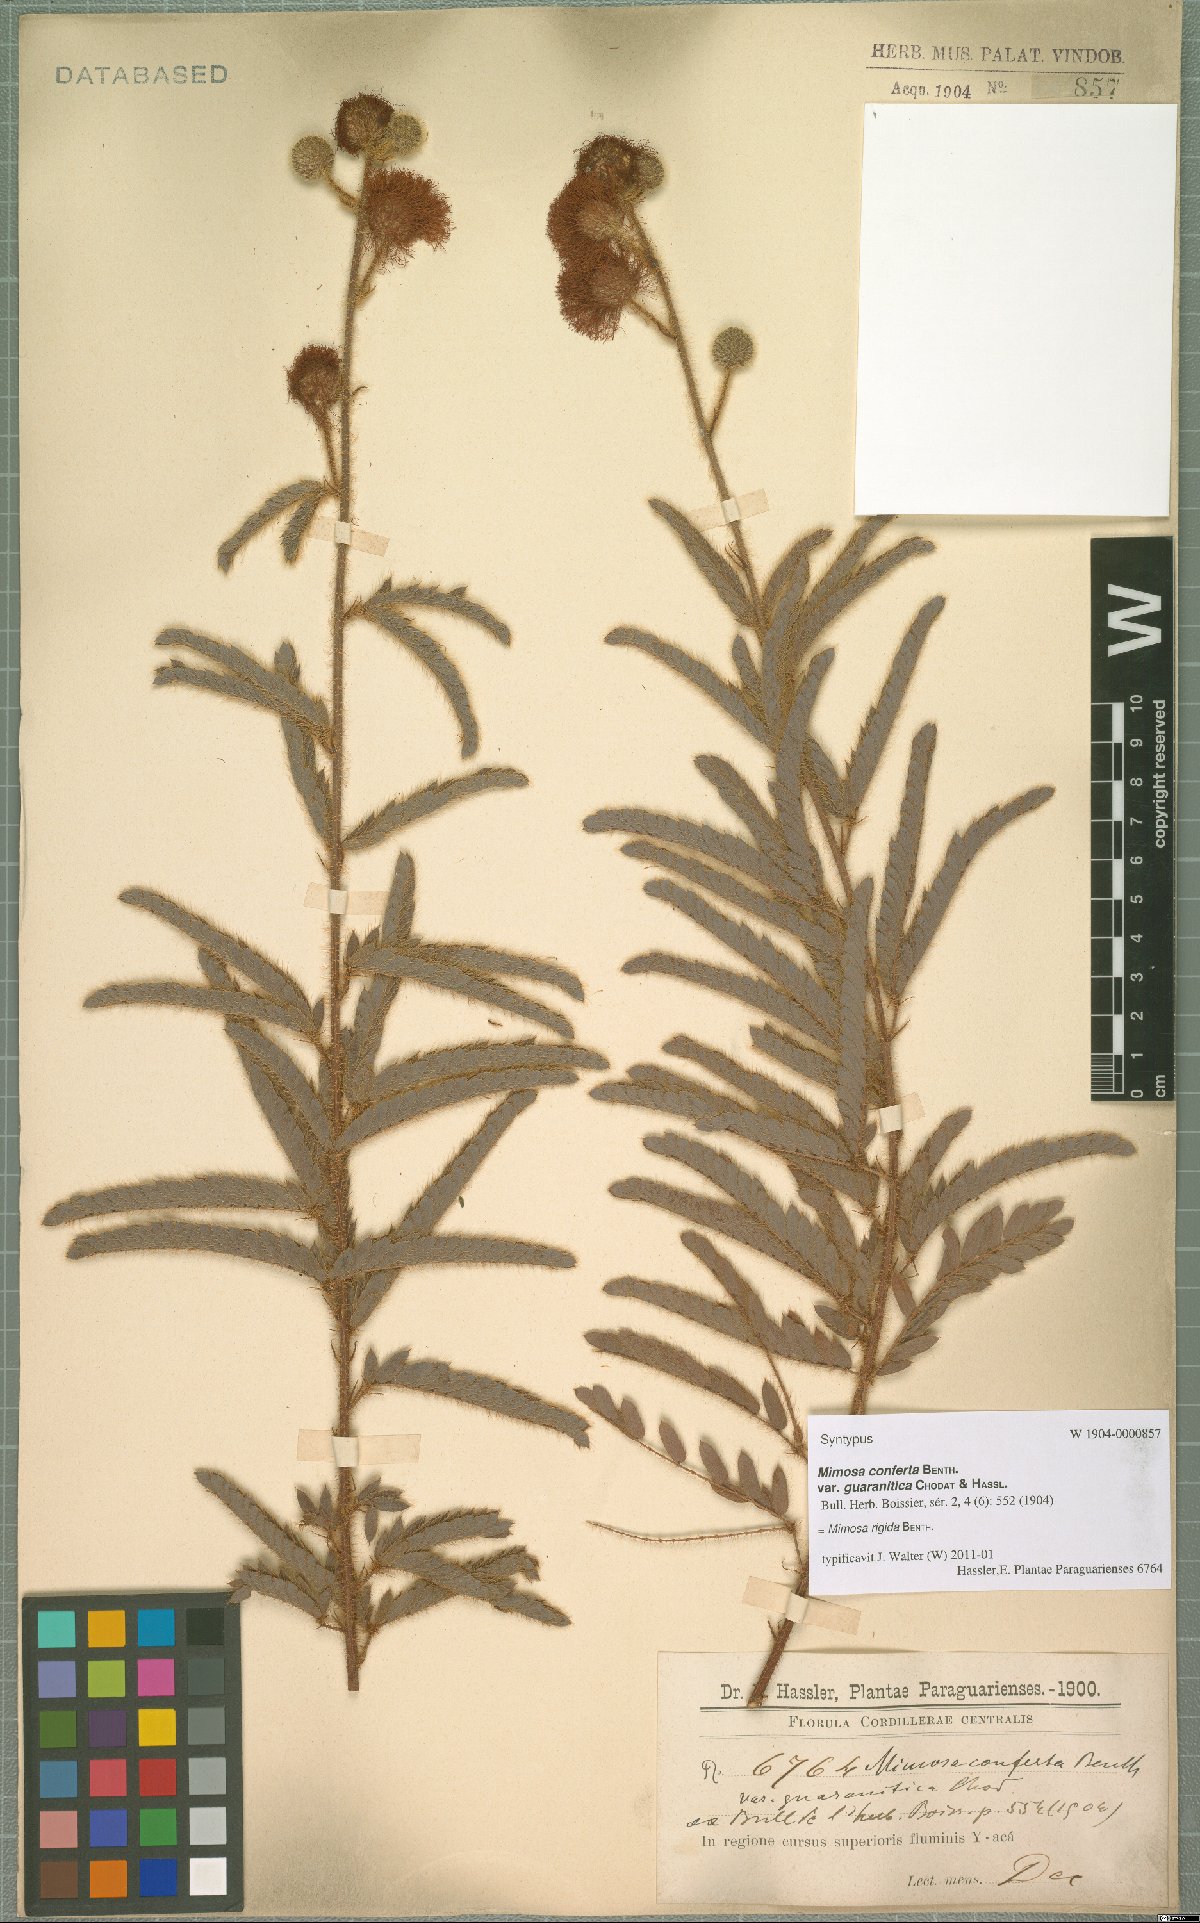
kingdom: Plantae
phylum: Tracheophyta
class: Magnoliopsida
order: Fabales
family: Fabaceae
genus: Mimosa
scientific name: Mimosa dolens
